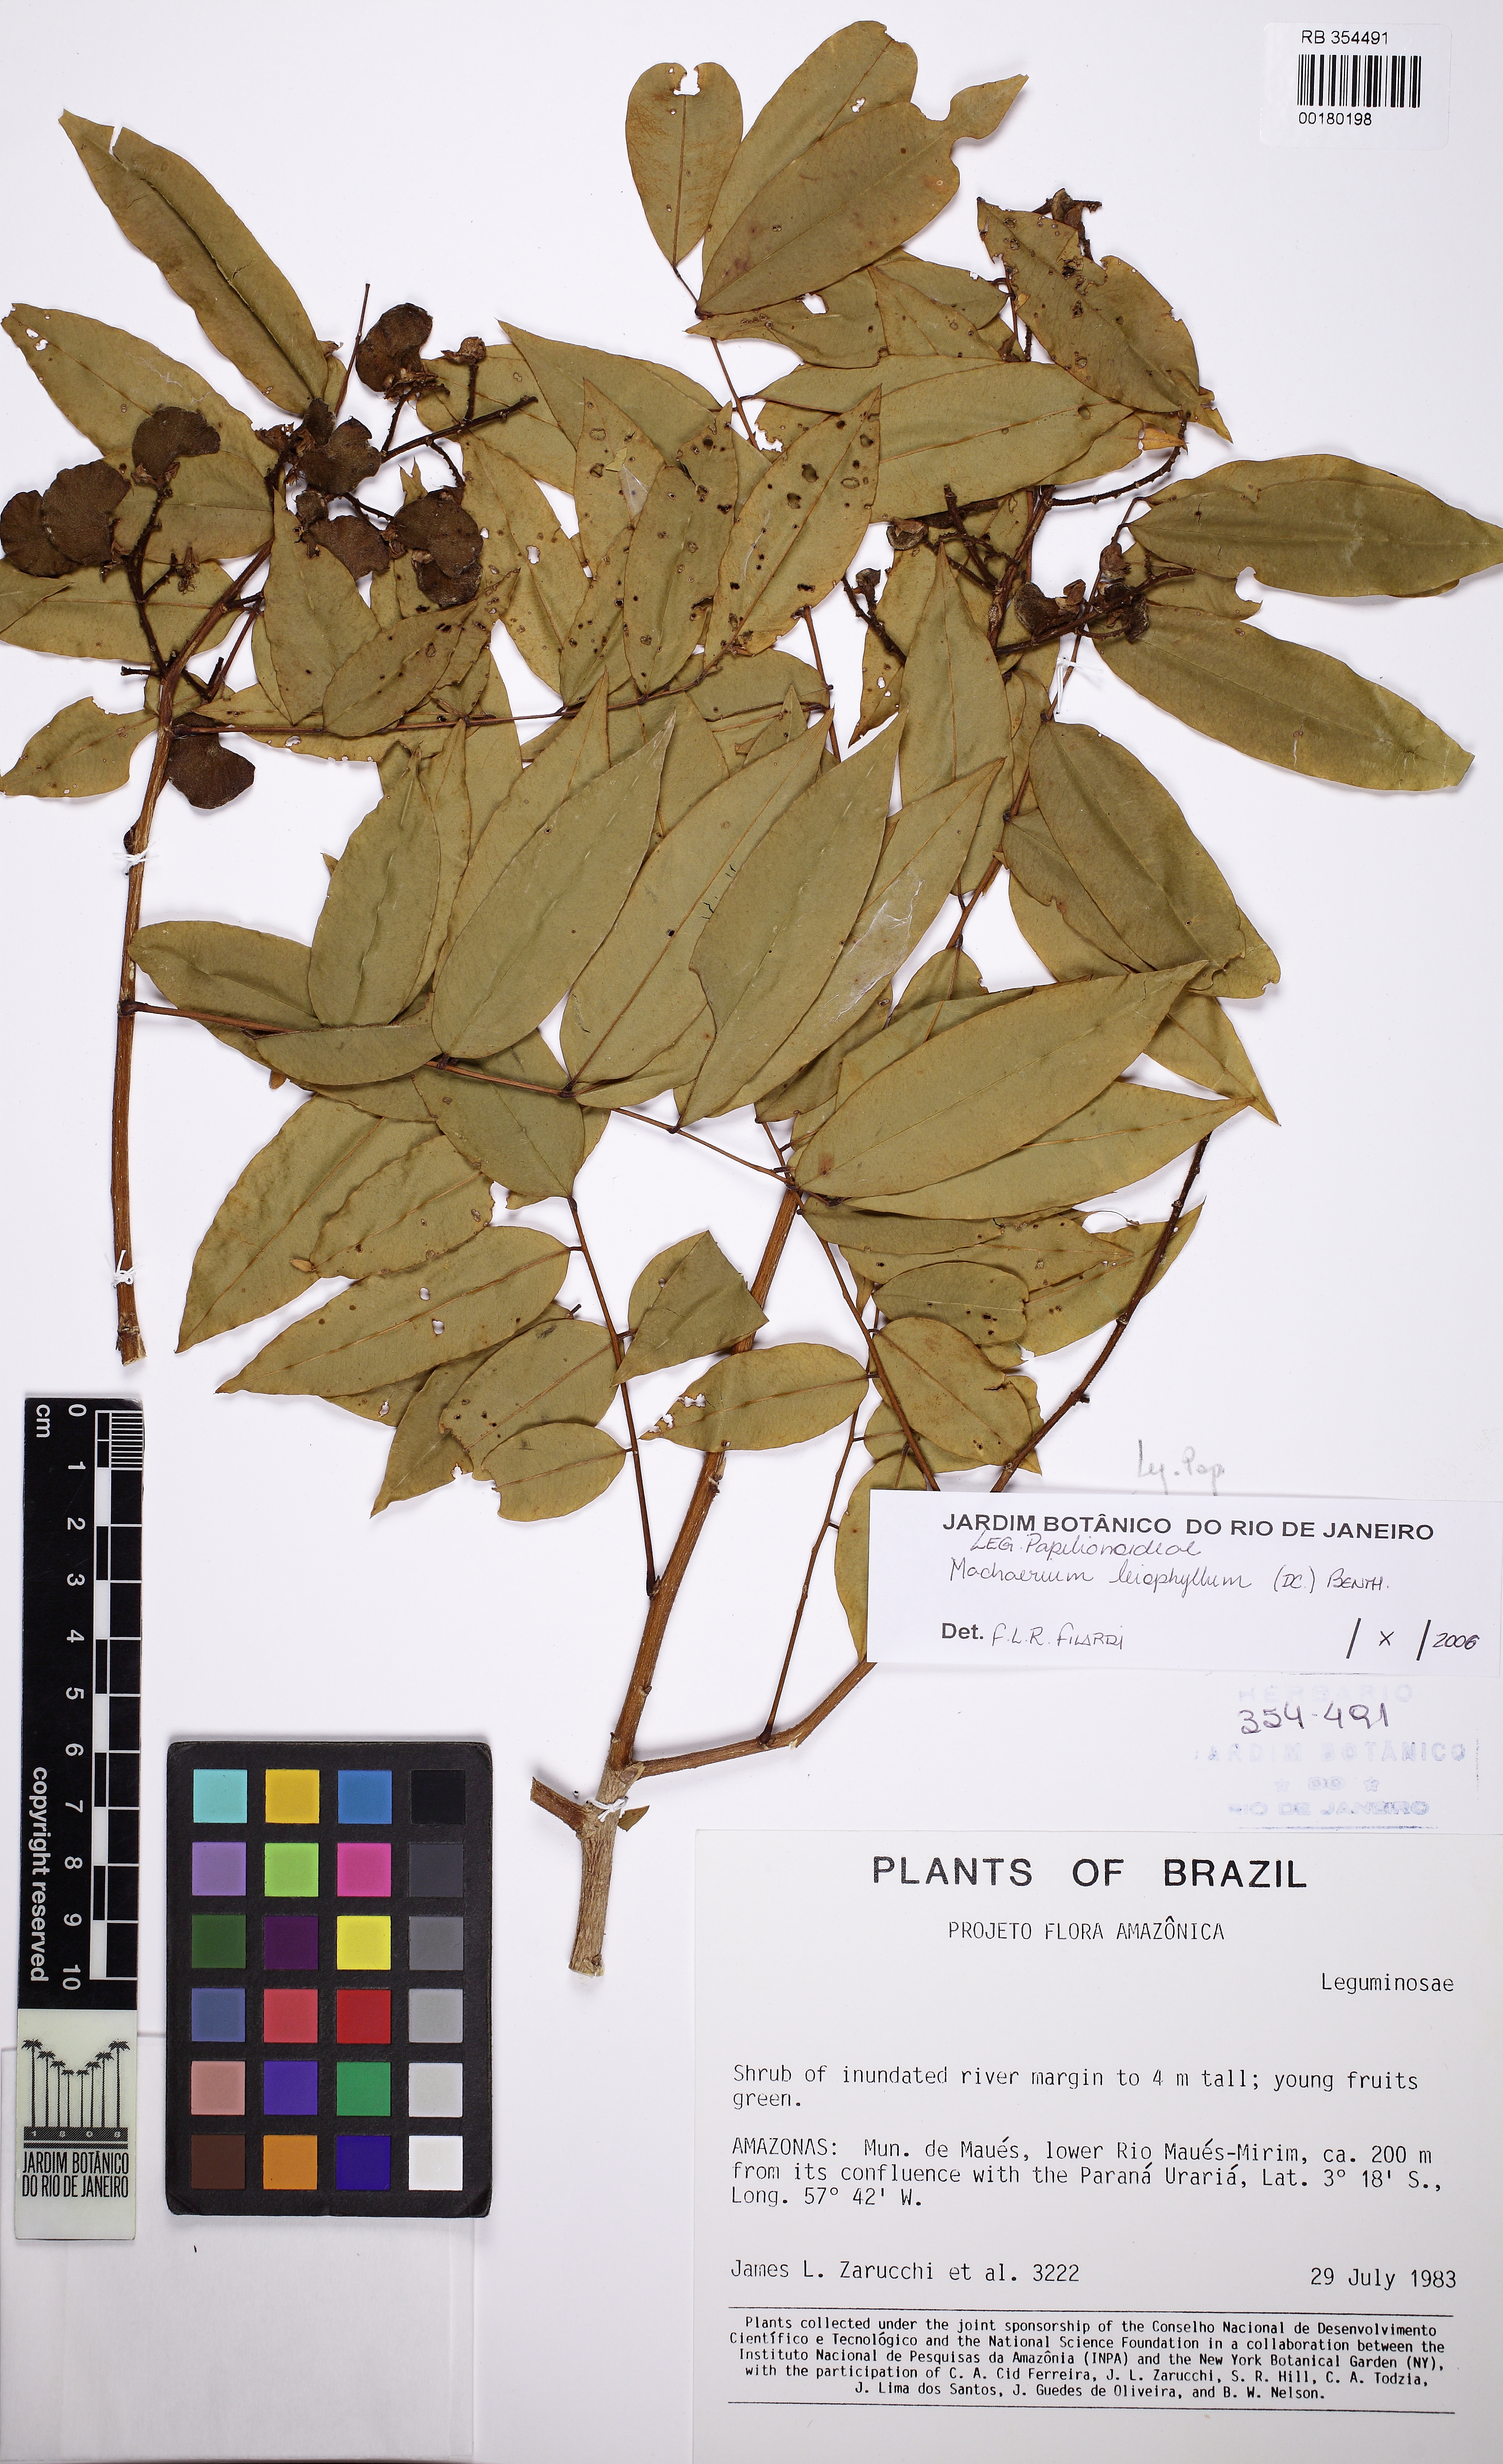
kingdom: Plantae
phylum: Tracheophyta
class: Magnoliopsida
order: Fabales
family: Fabaceae
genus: Machaerium
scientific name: Machaerium leiophyllum
